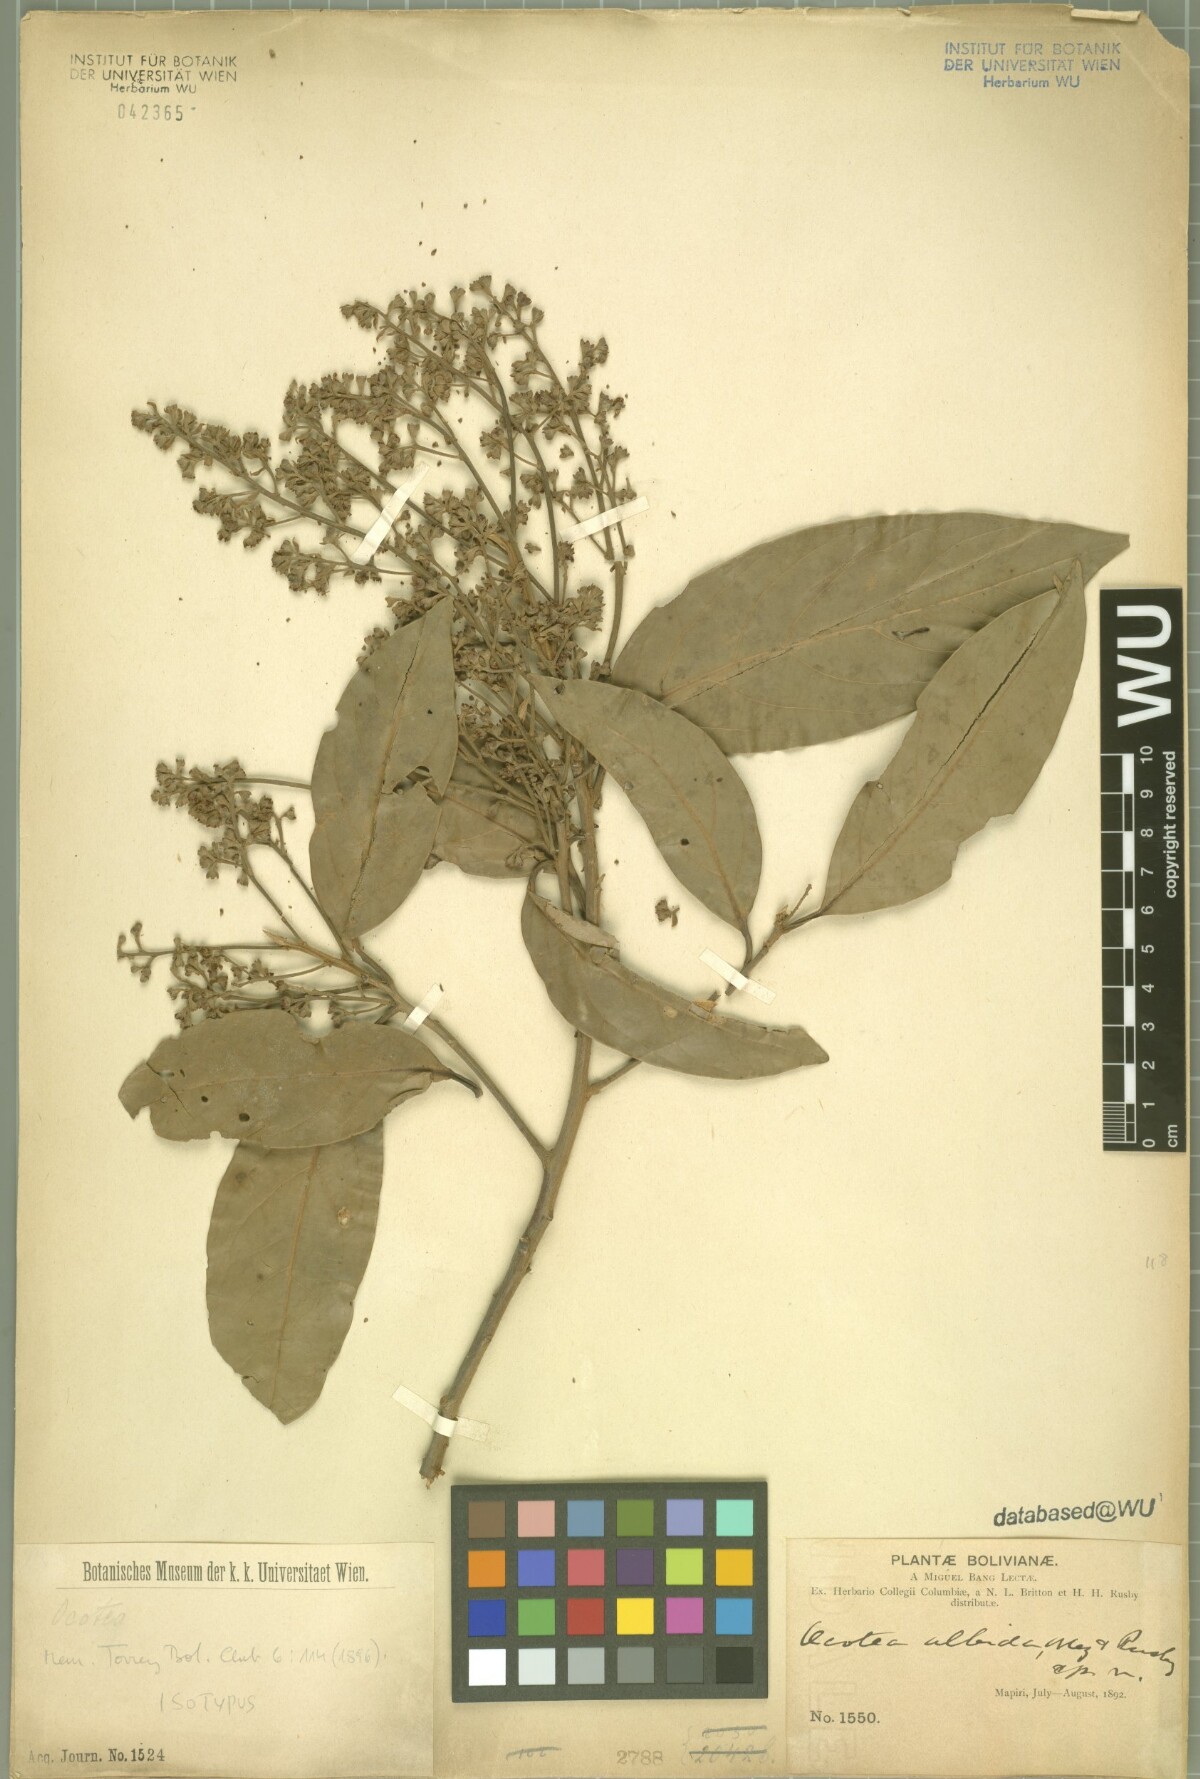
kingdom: Plantae
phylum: Tracheophyta
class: Magnoliopsida
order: Laurales
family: Lauraceae
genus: Ocotea
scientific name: Ocotea albida
